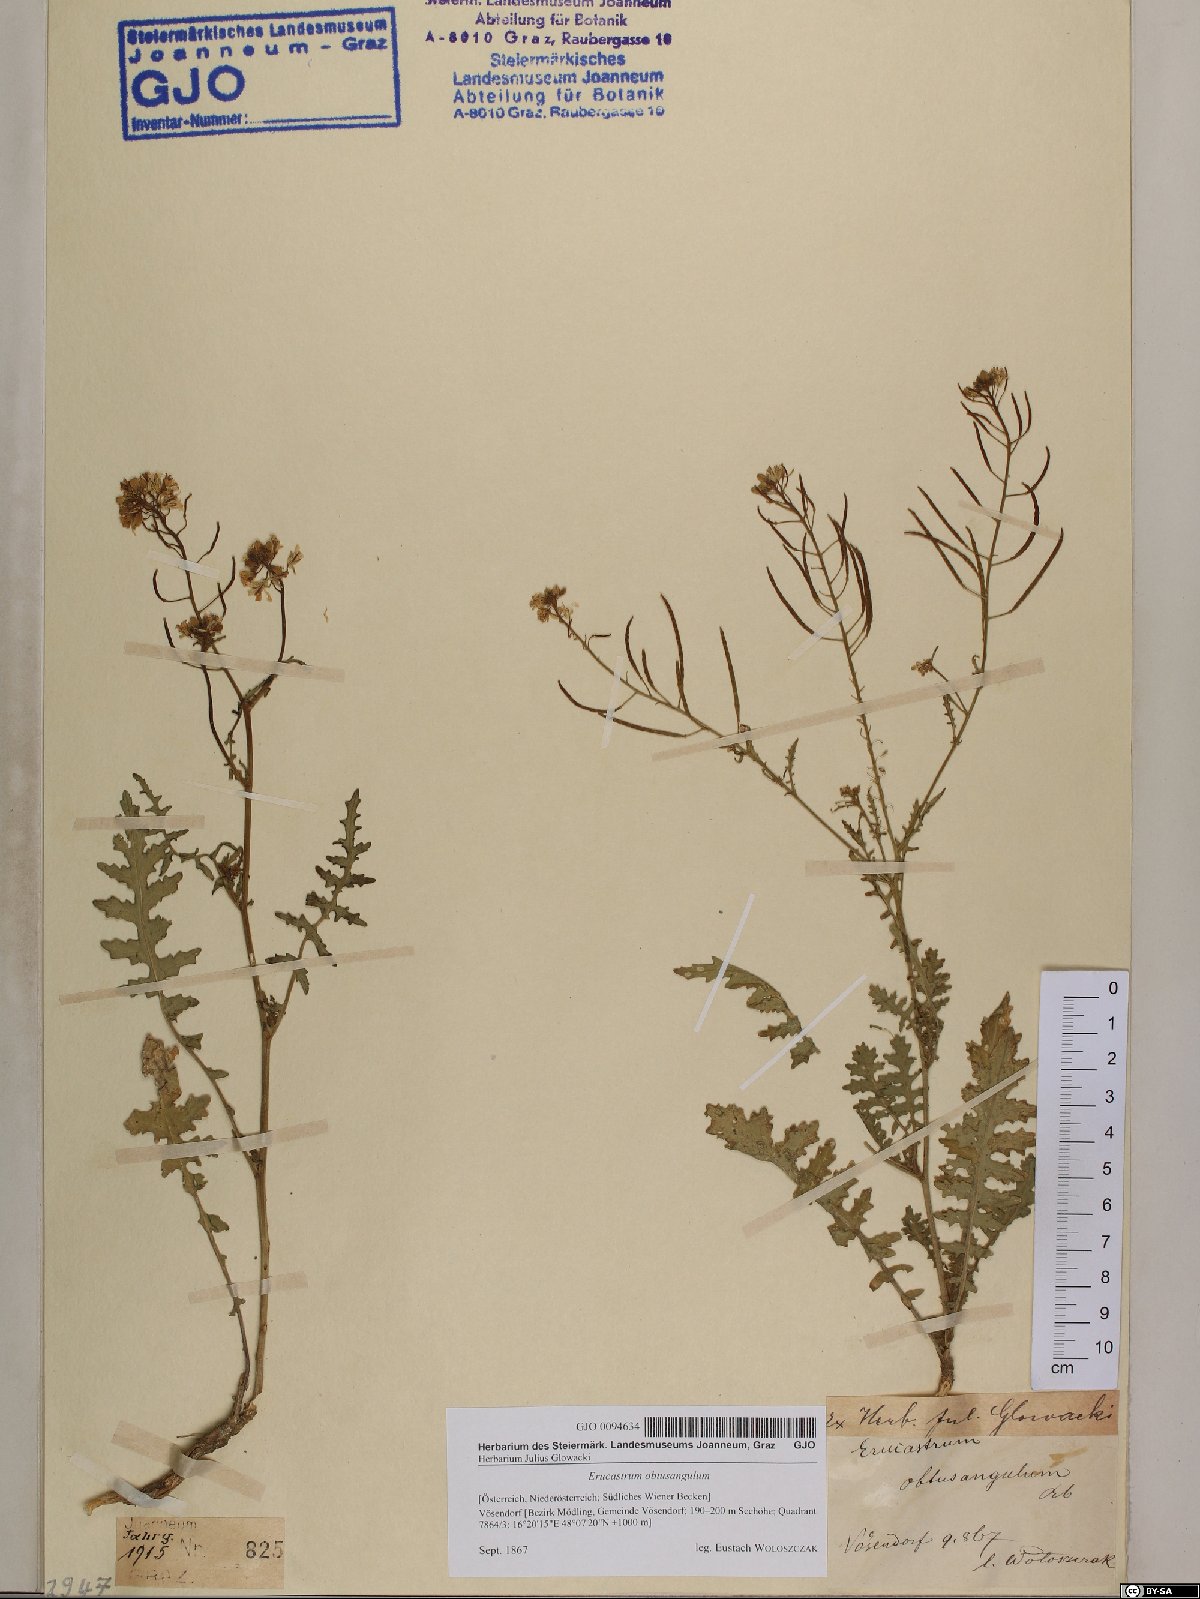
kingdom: Plantae
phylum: Tracheophyta
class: Magnoliopsida
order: Brassicales
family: Brassicaceae
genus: Erucastrum
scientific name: Erucastrum nasturtiifolium
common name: Watercress-leaf rocket
